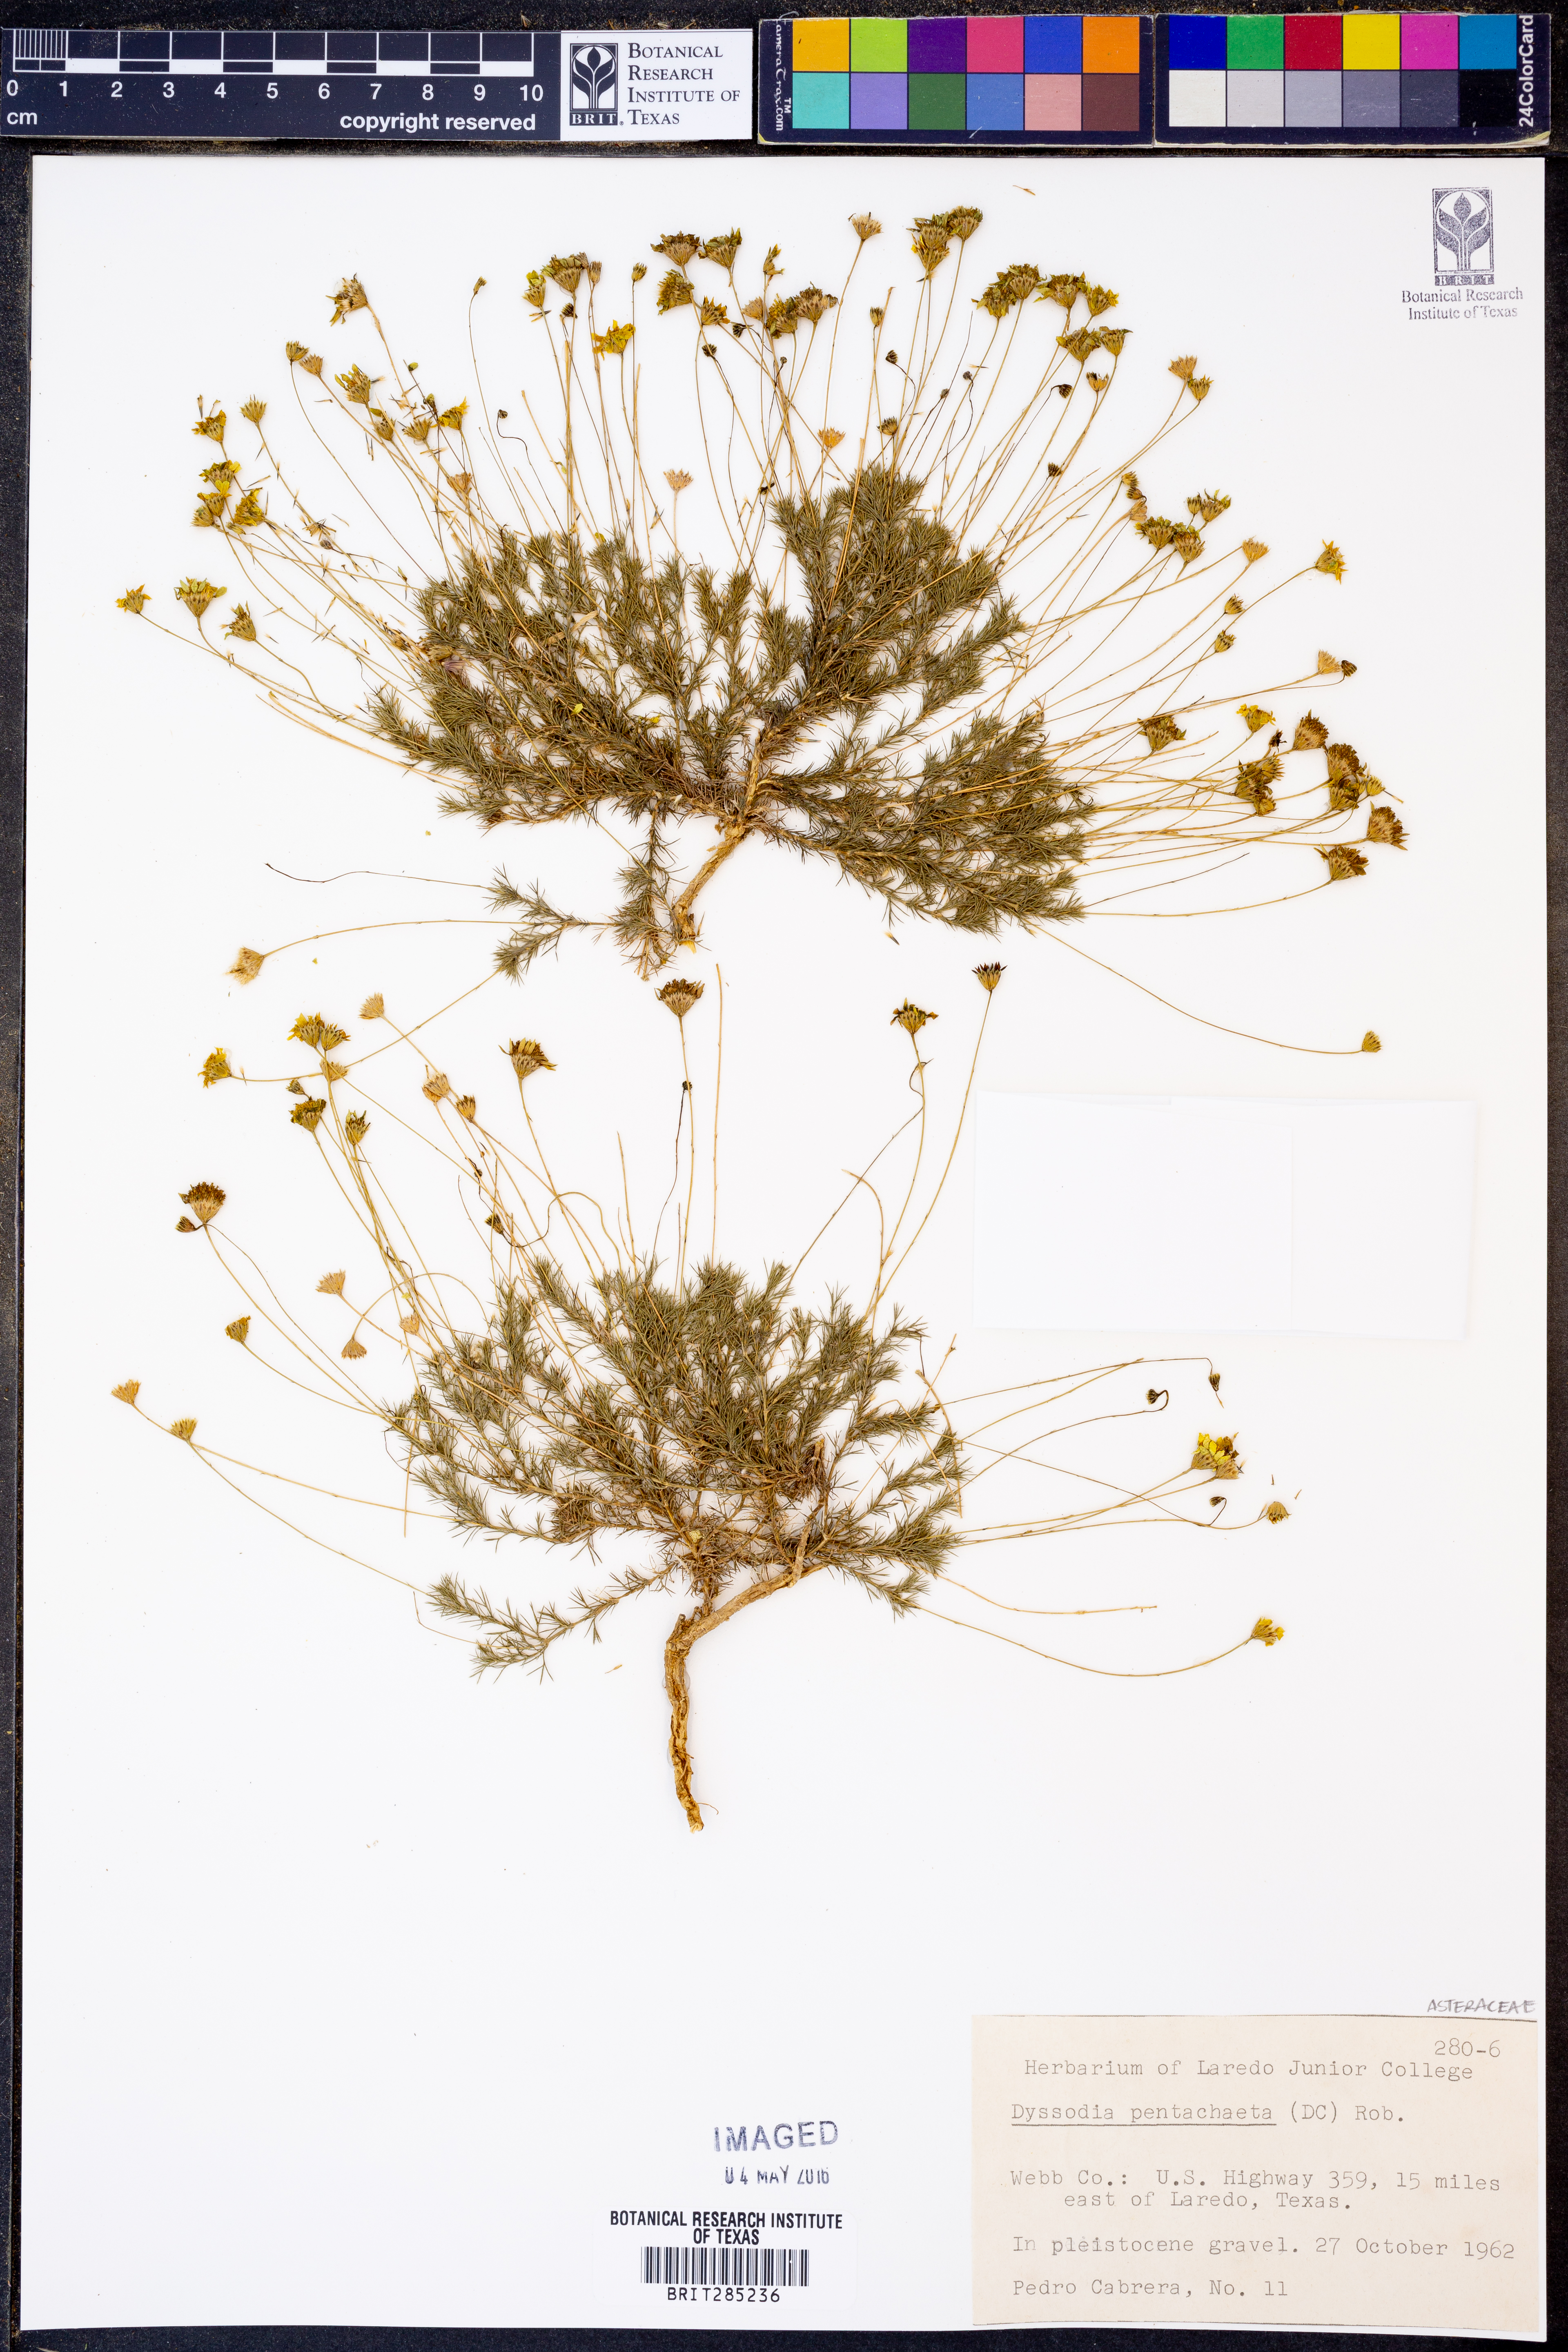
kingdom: Plantae
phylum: Tracheophyta
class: Magnoliopsida
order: Asterales
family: Asteraceae
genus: Thymophylla
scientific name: Thymophylla pentachaeta
